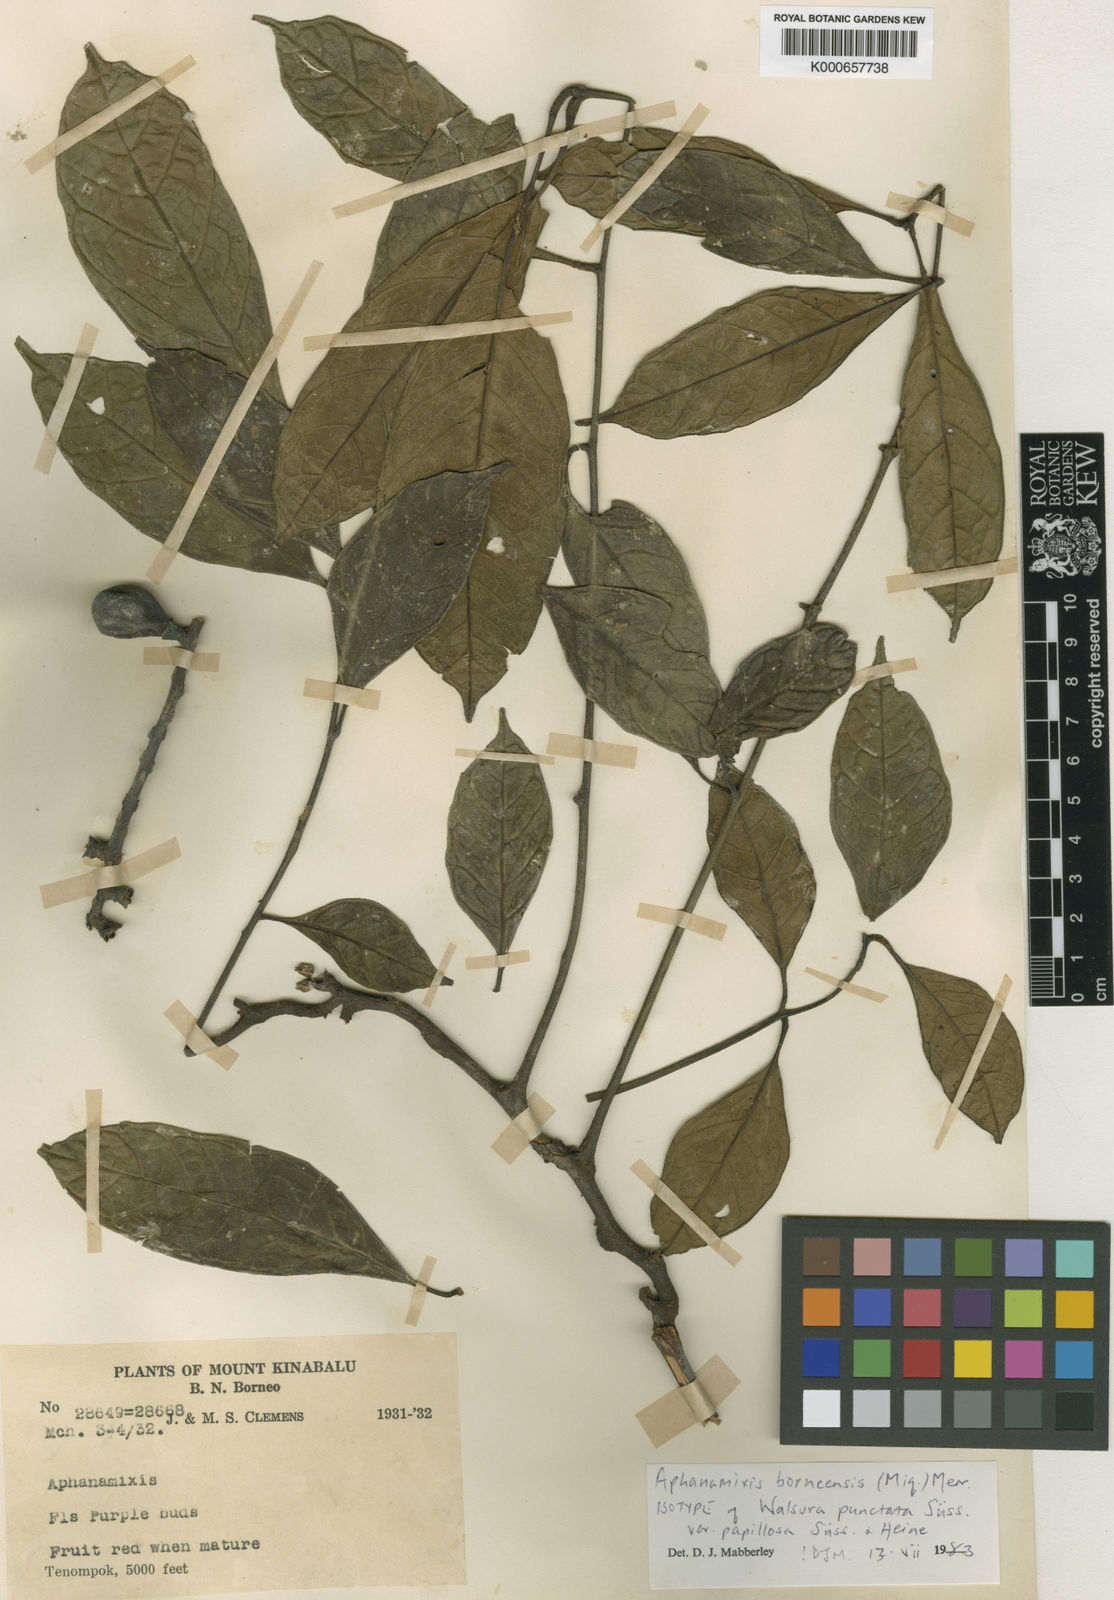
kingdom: Plantae
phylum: Tracheophyta
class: Magnoliopsida
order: Sapindales
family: Meliaceae
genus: Aphanamixis
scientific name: Aphanamixis borneensis
